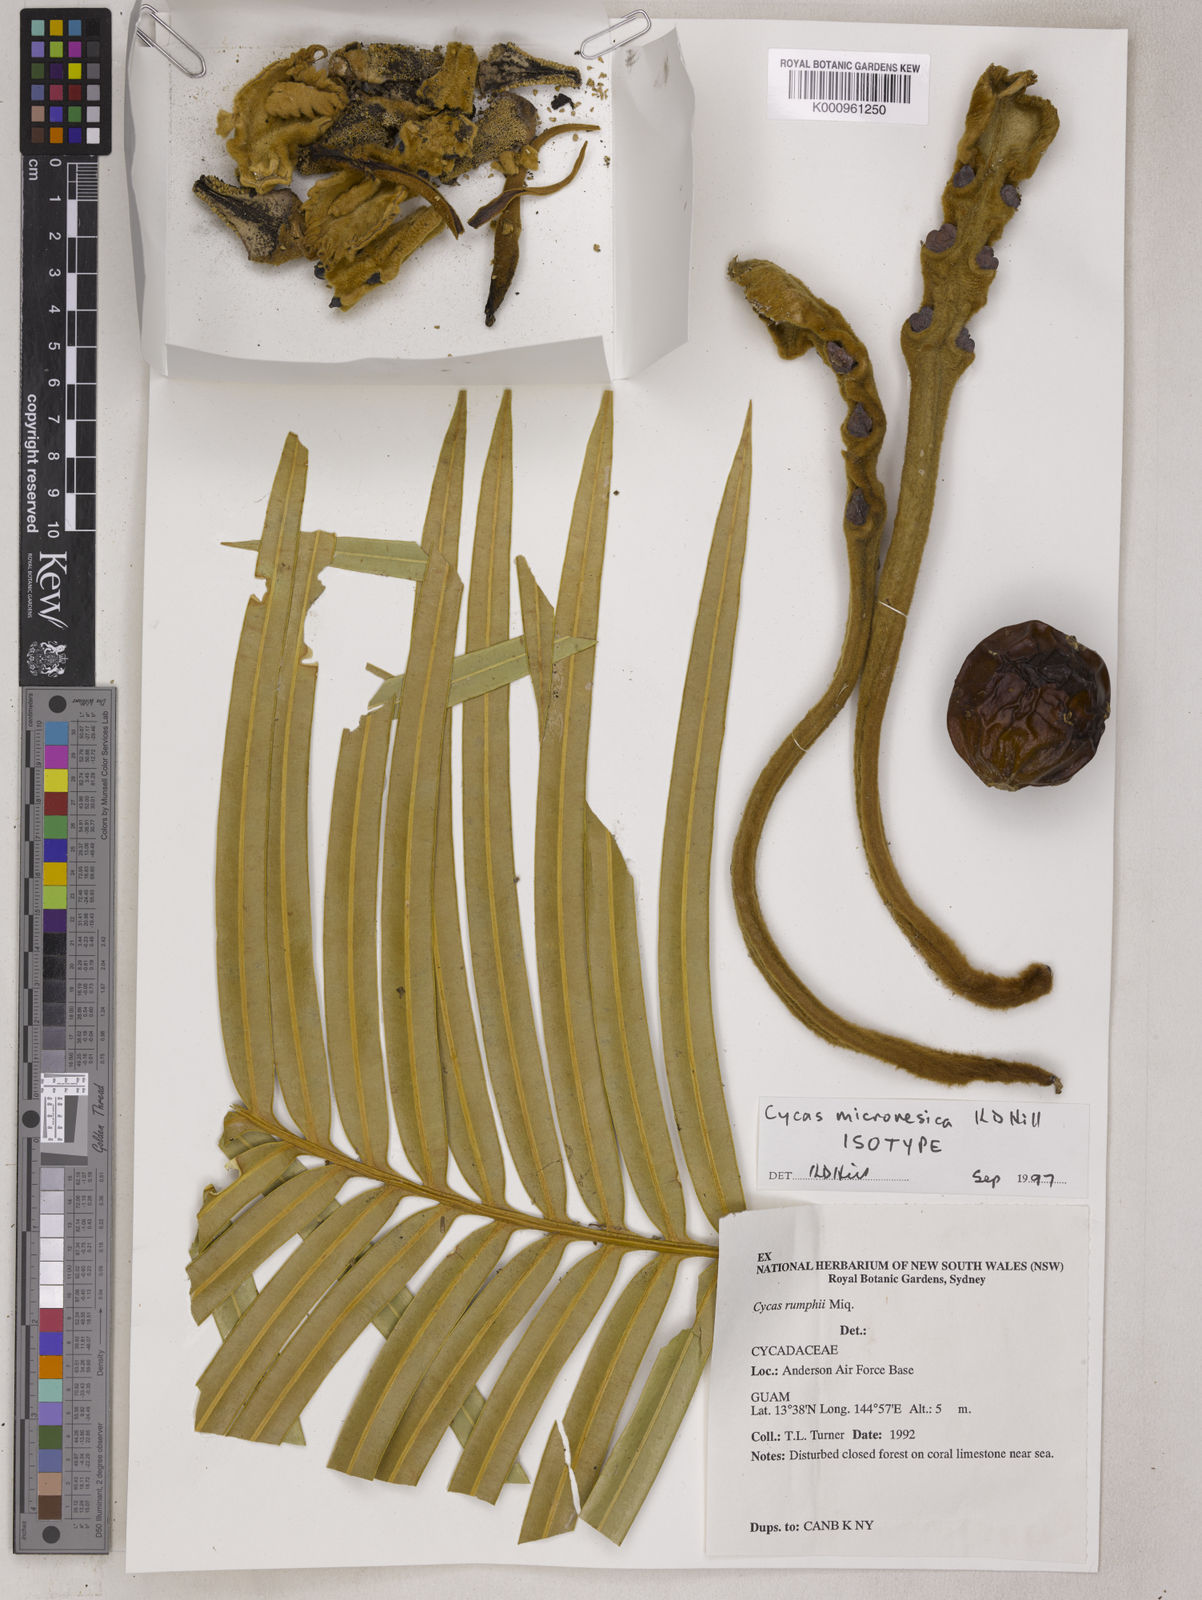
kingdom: Plantae
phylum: Tracheophyta
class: Cycadopsida
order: Cycadales
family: Cycadaceae
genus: Cycas
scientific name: Cycas micronesica
